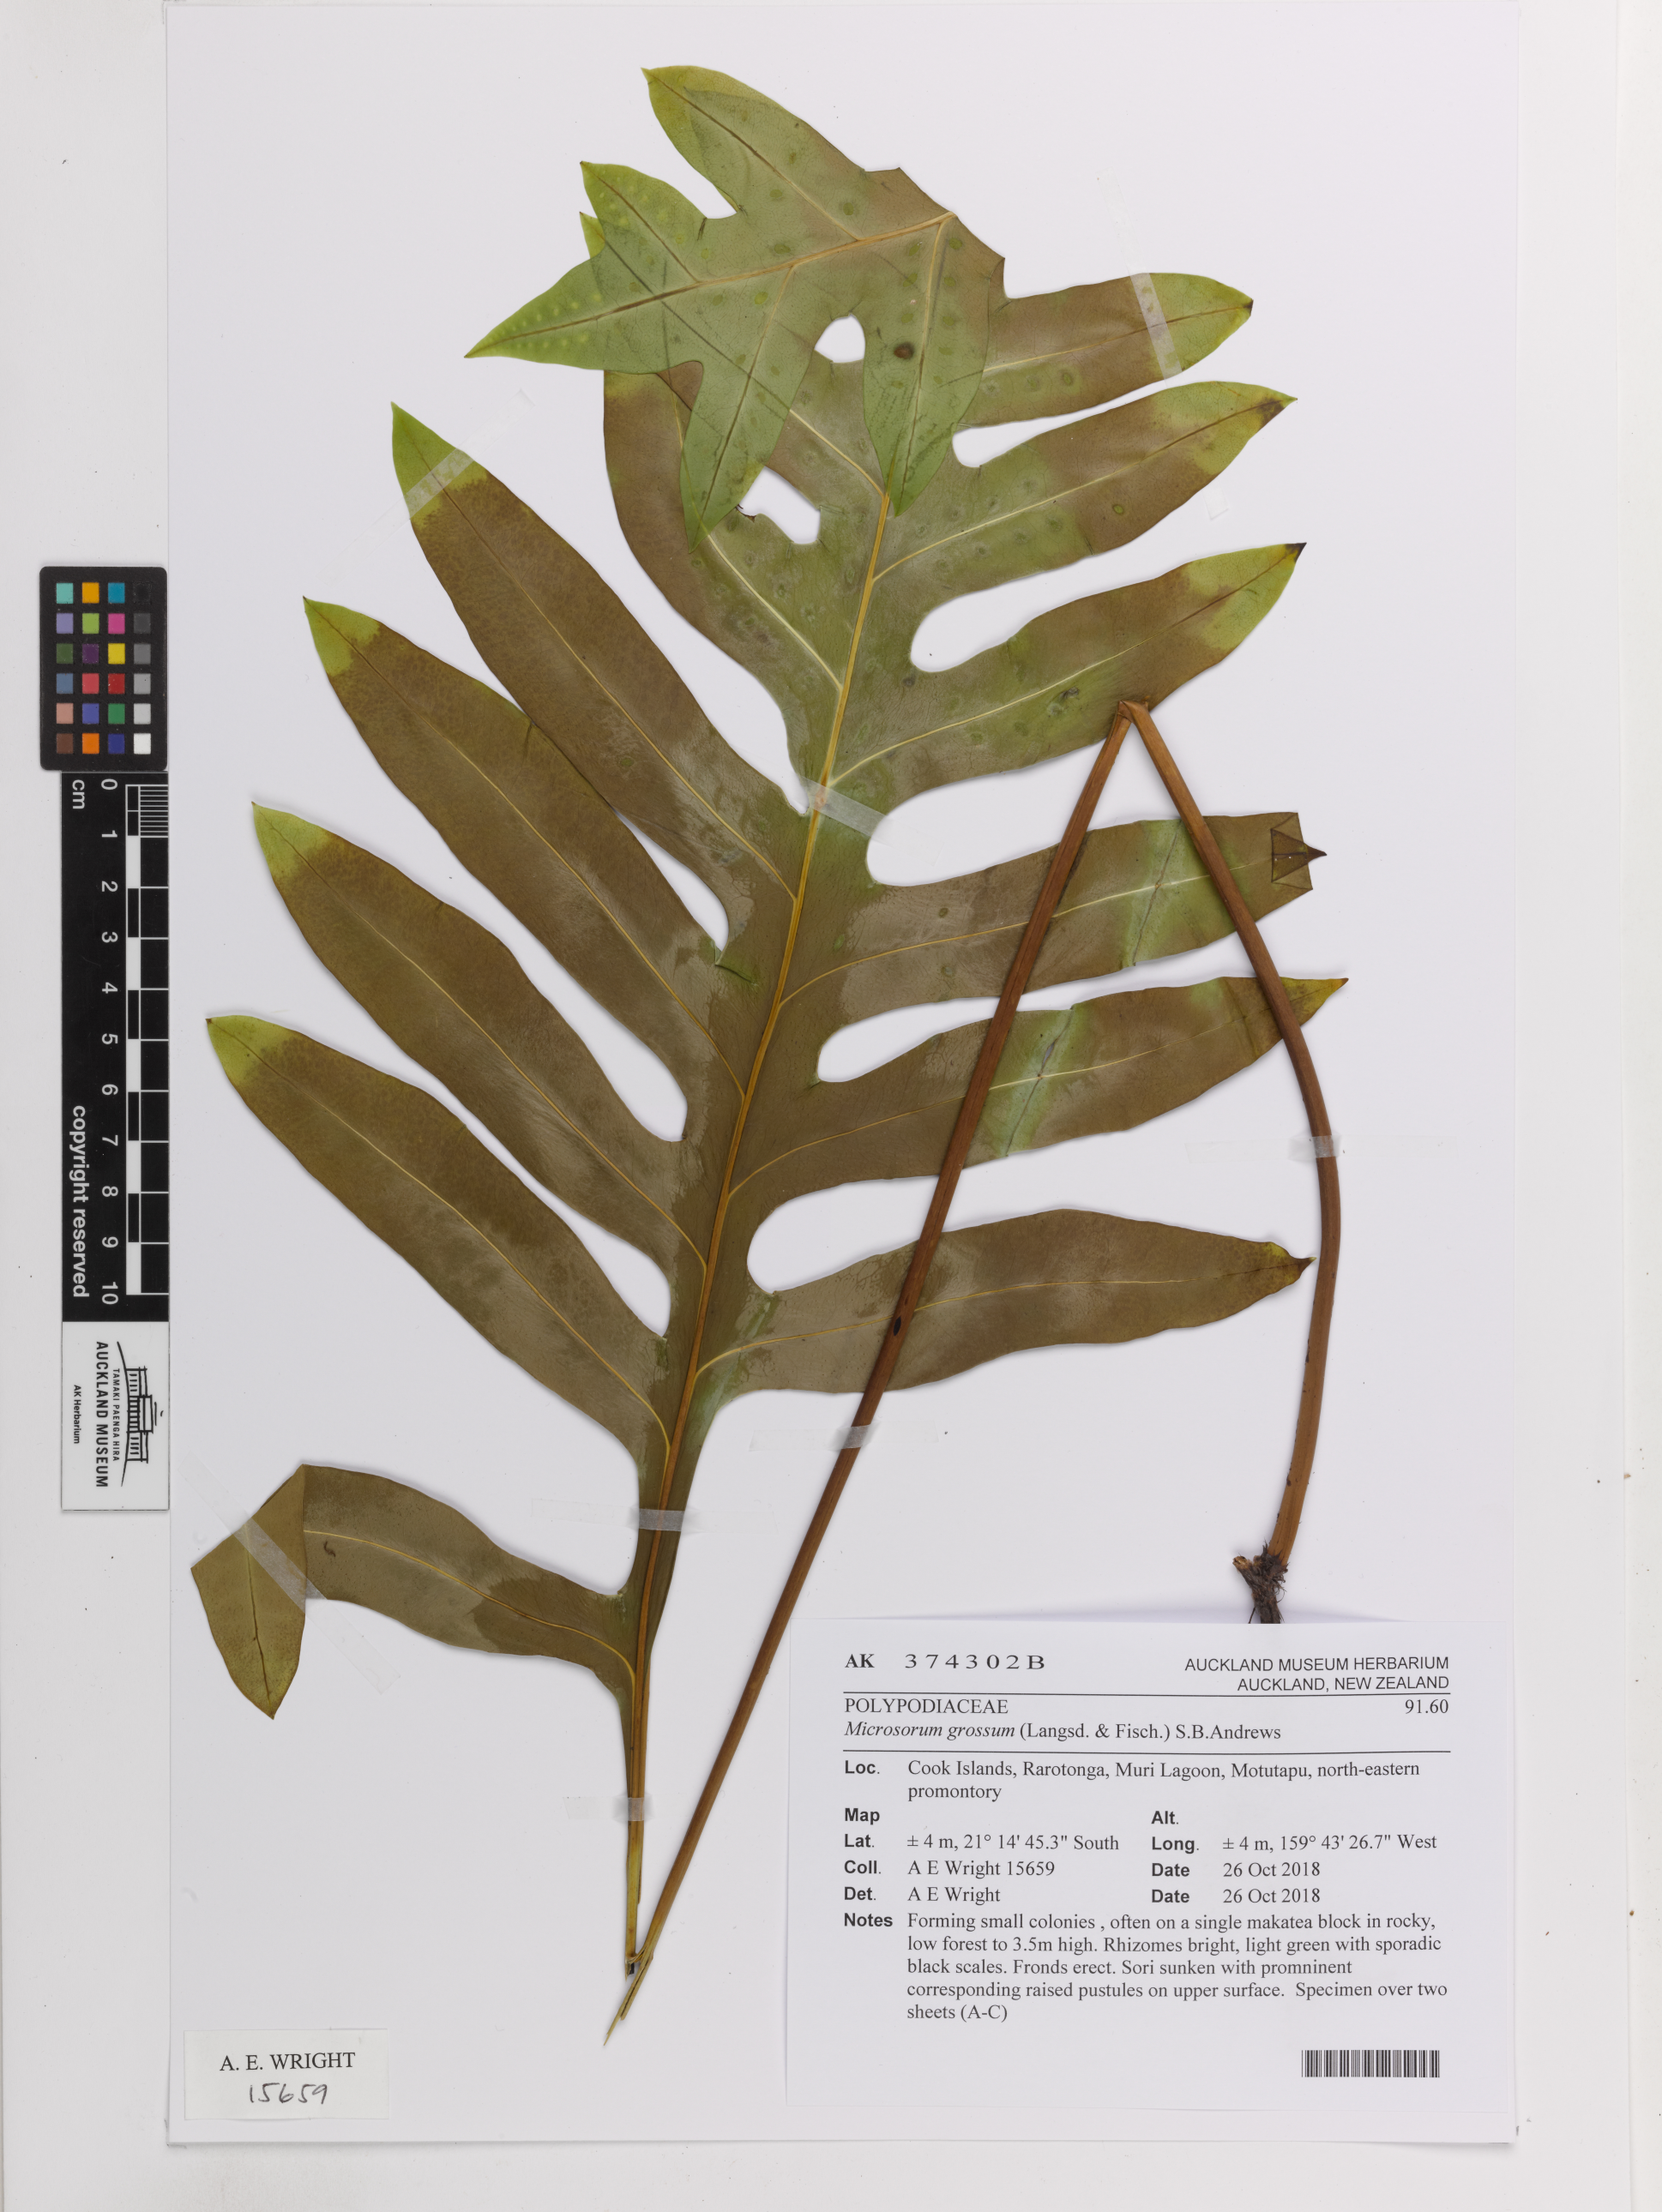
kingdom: Plantae
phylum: Tracheophyta
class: Polypodiopsida
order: Polypodiales
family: Polypodiaceae
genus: Microsorum
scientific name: Microsorum grossum
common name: Musk fern
